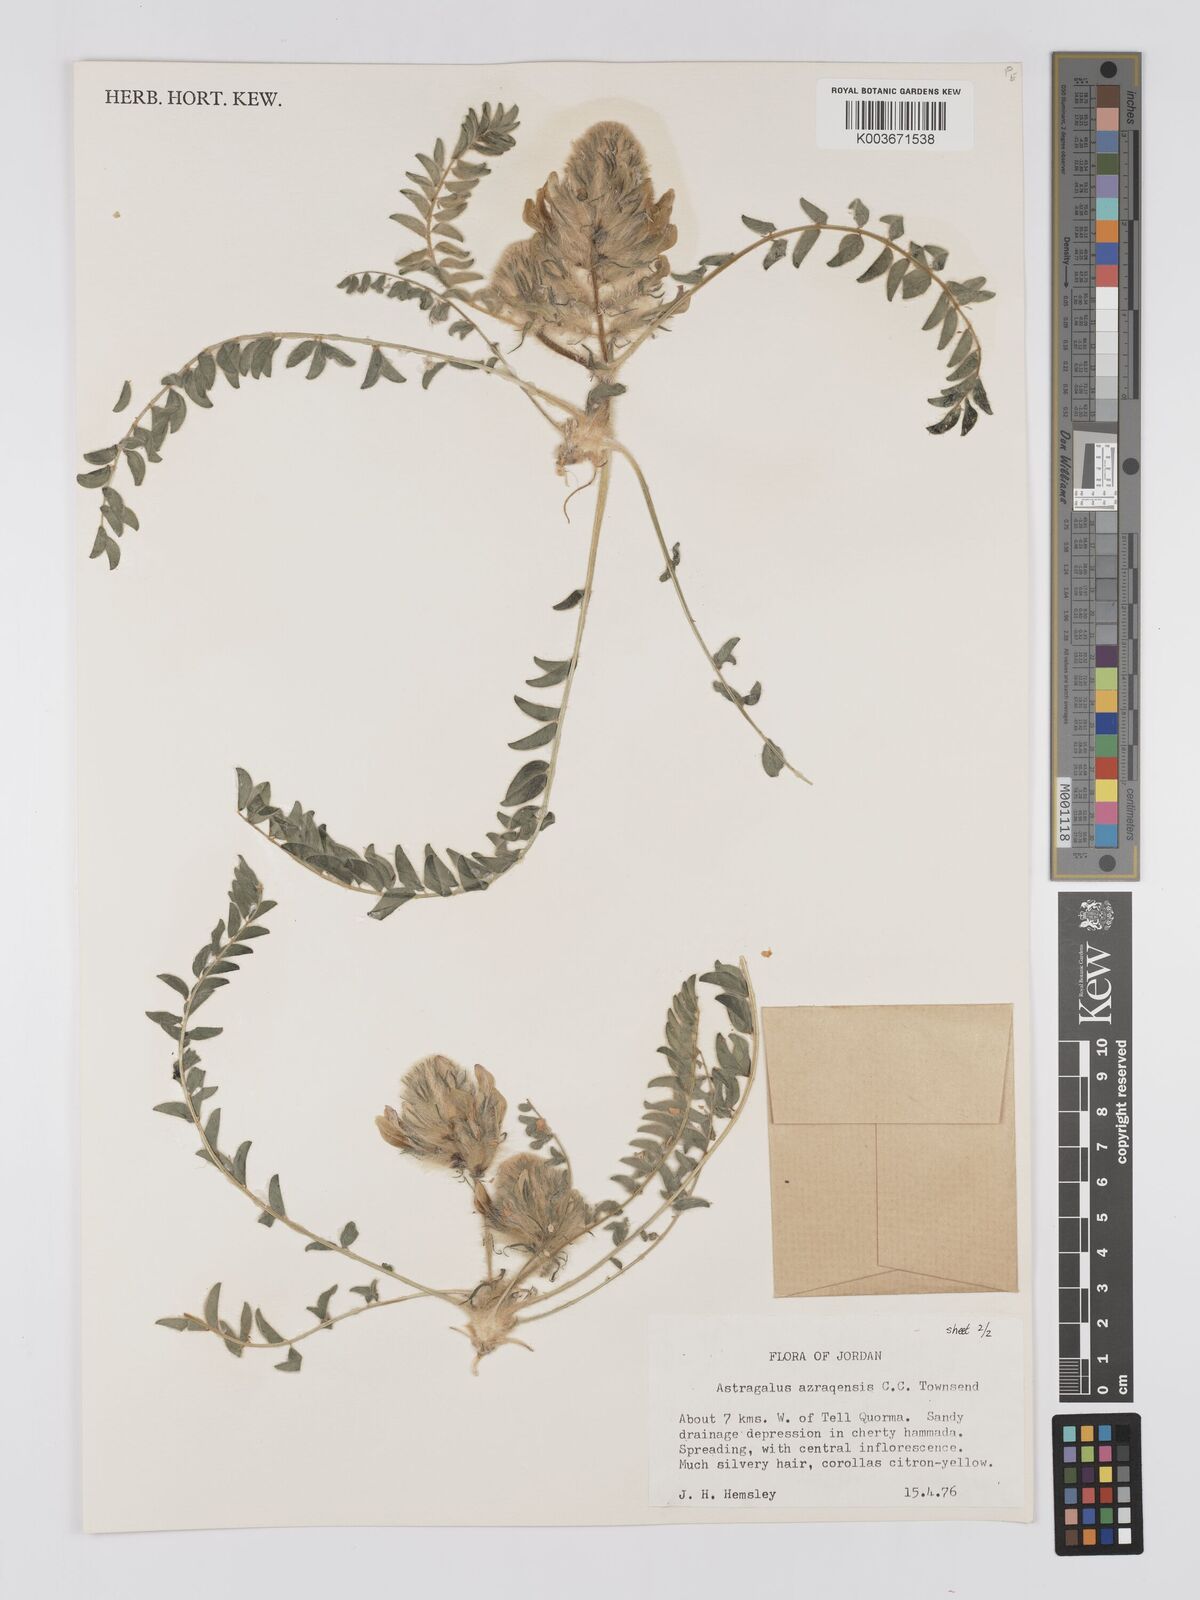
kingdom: Plantae
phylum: Tracheophyta
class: Magnoliopsida
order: Fabales
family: Fabaceae
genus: Astragalus
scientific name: Astragalus azraqensis
